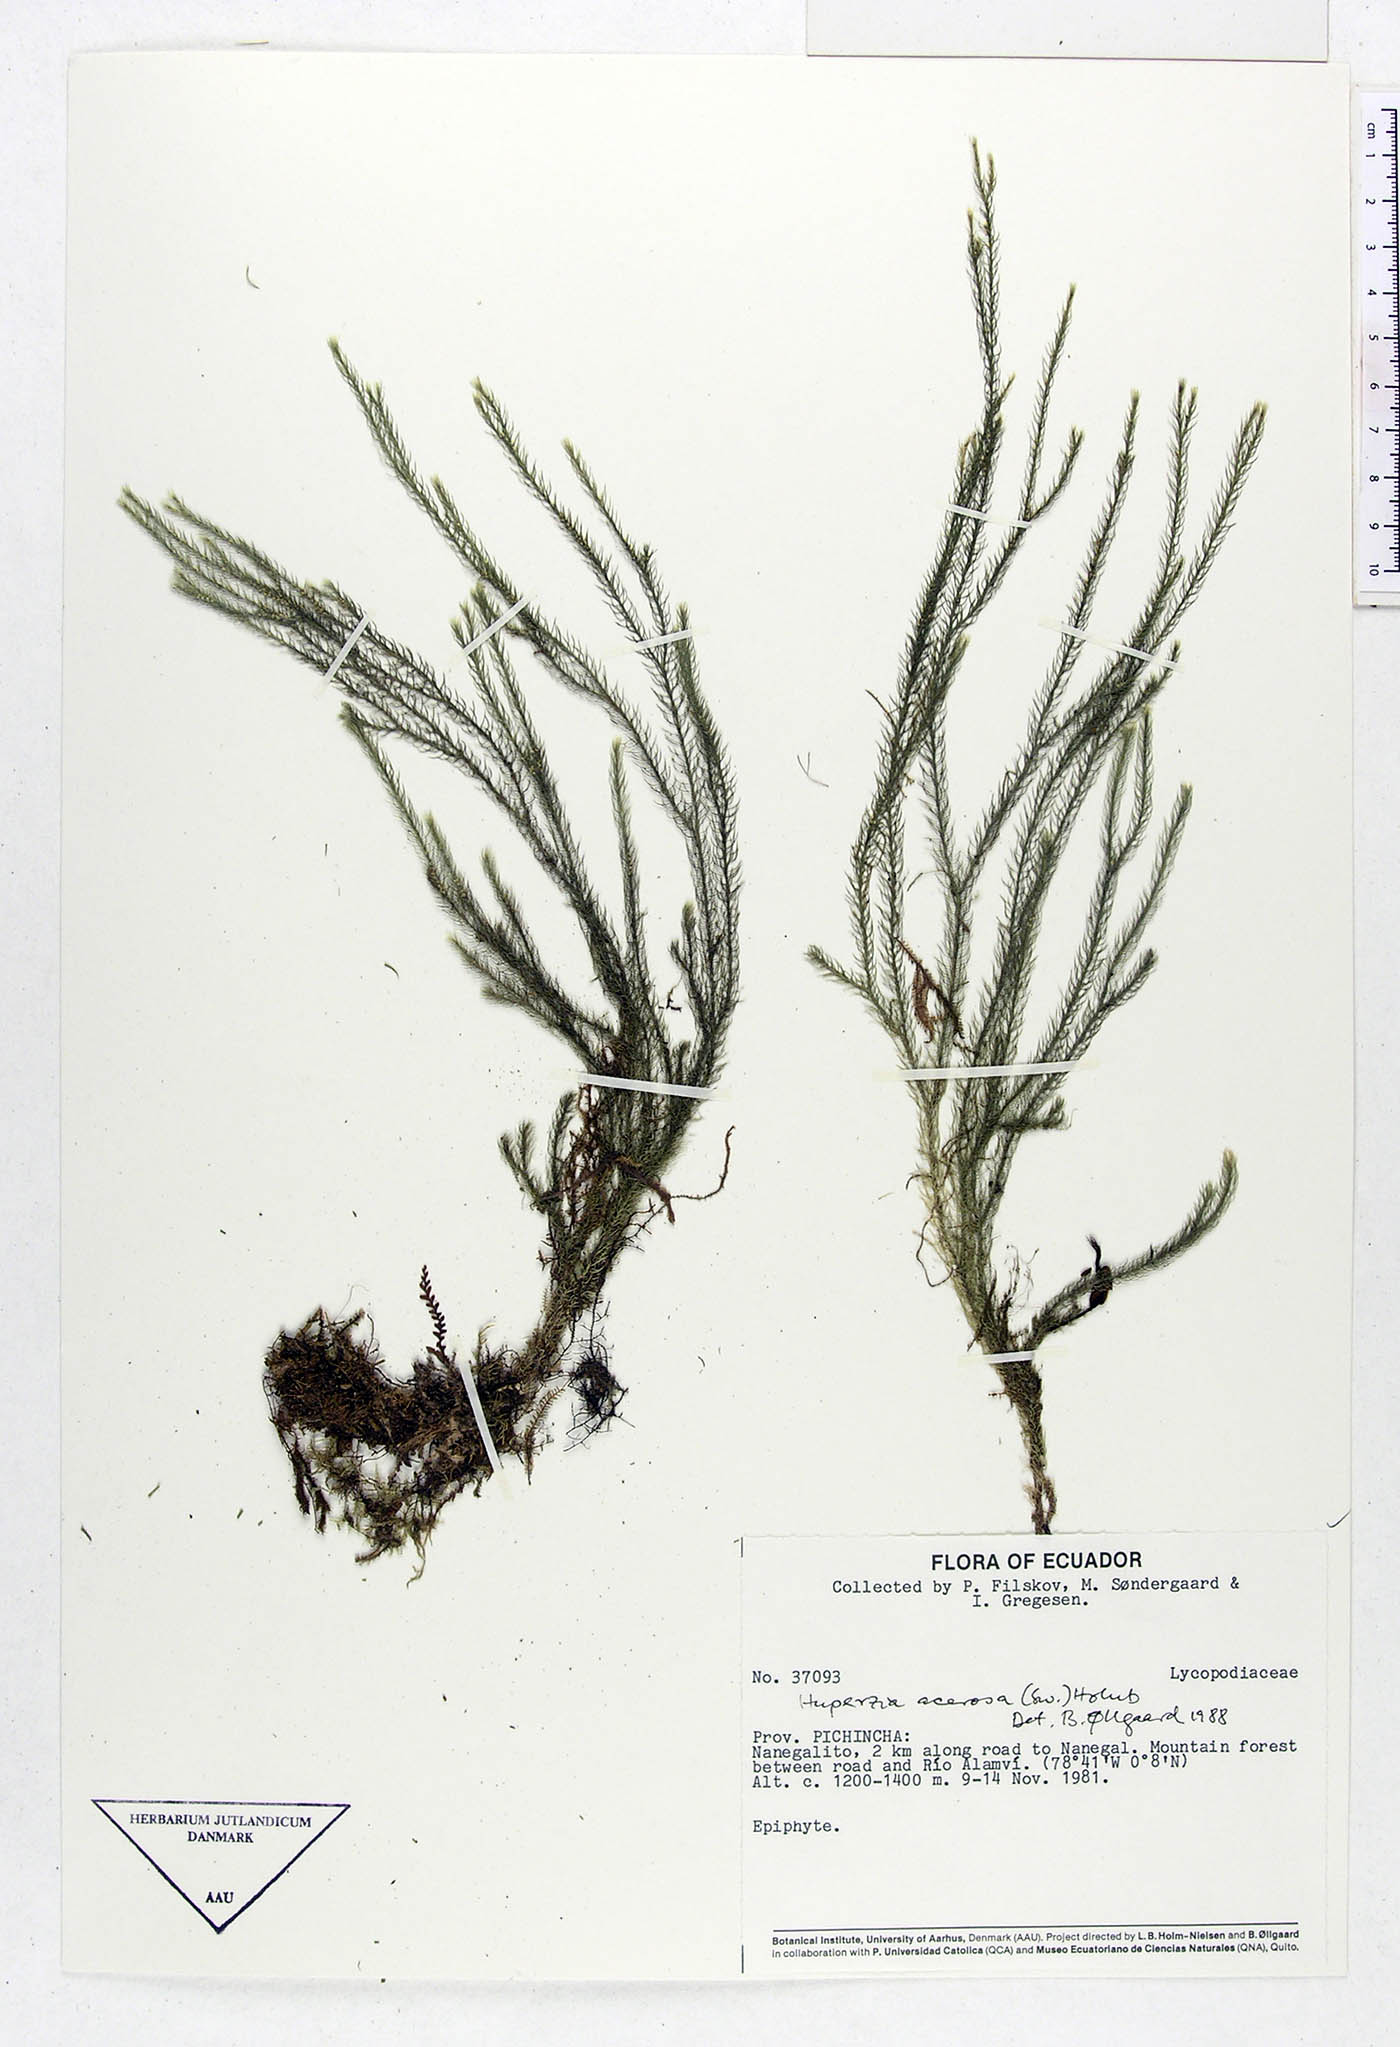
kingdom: Plantae
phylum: Tracheophyta
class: Lycopodiopsida
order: Lycopodiales
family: Lycopodiaceae
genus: Phlegmariurus
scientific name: Phlegmariurus acerosus
